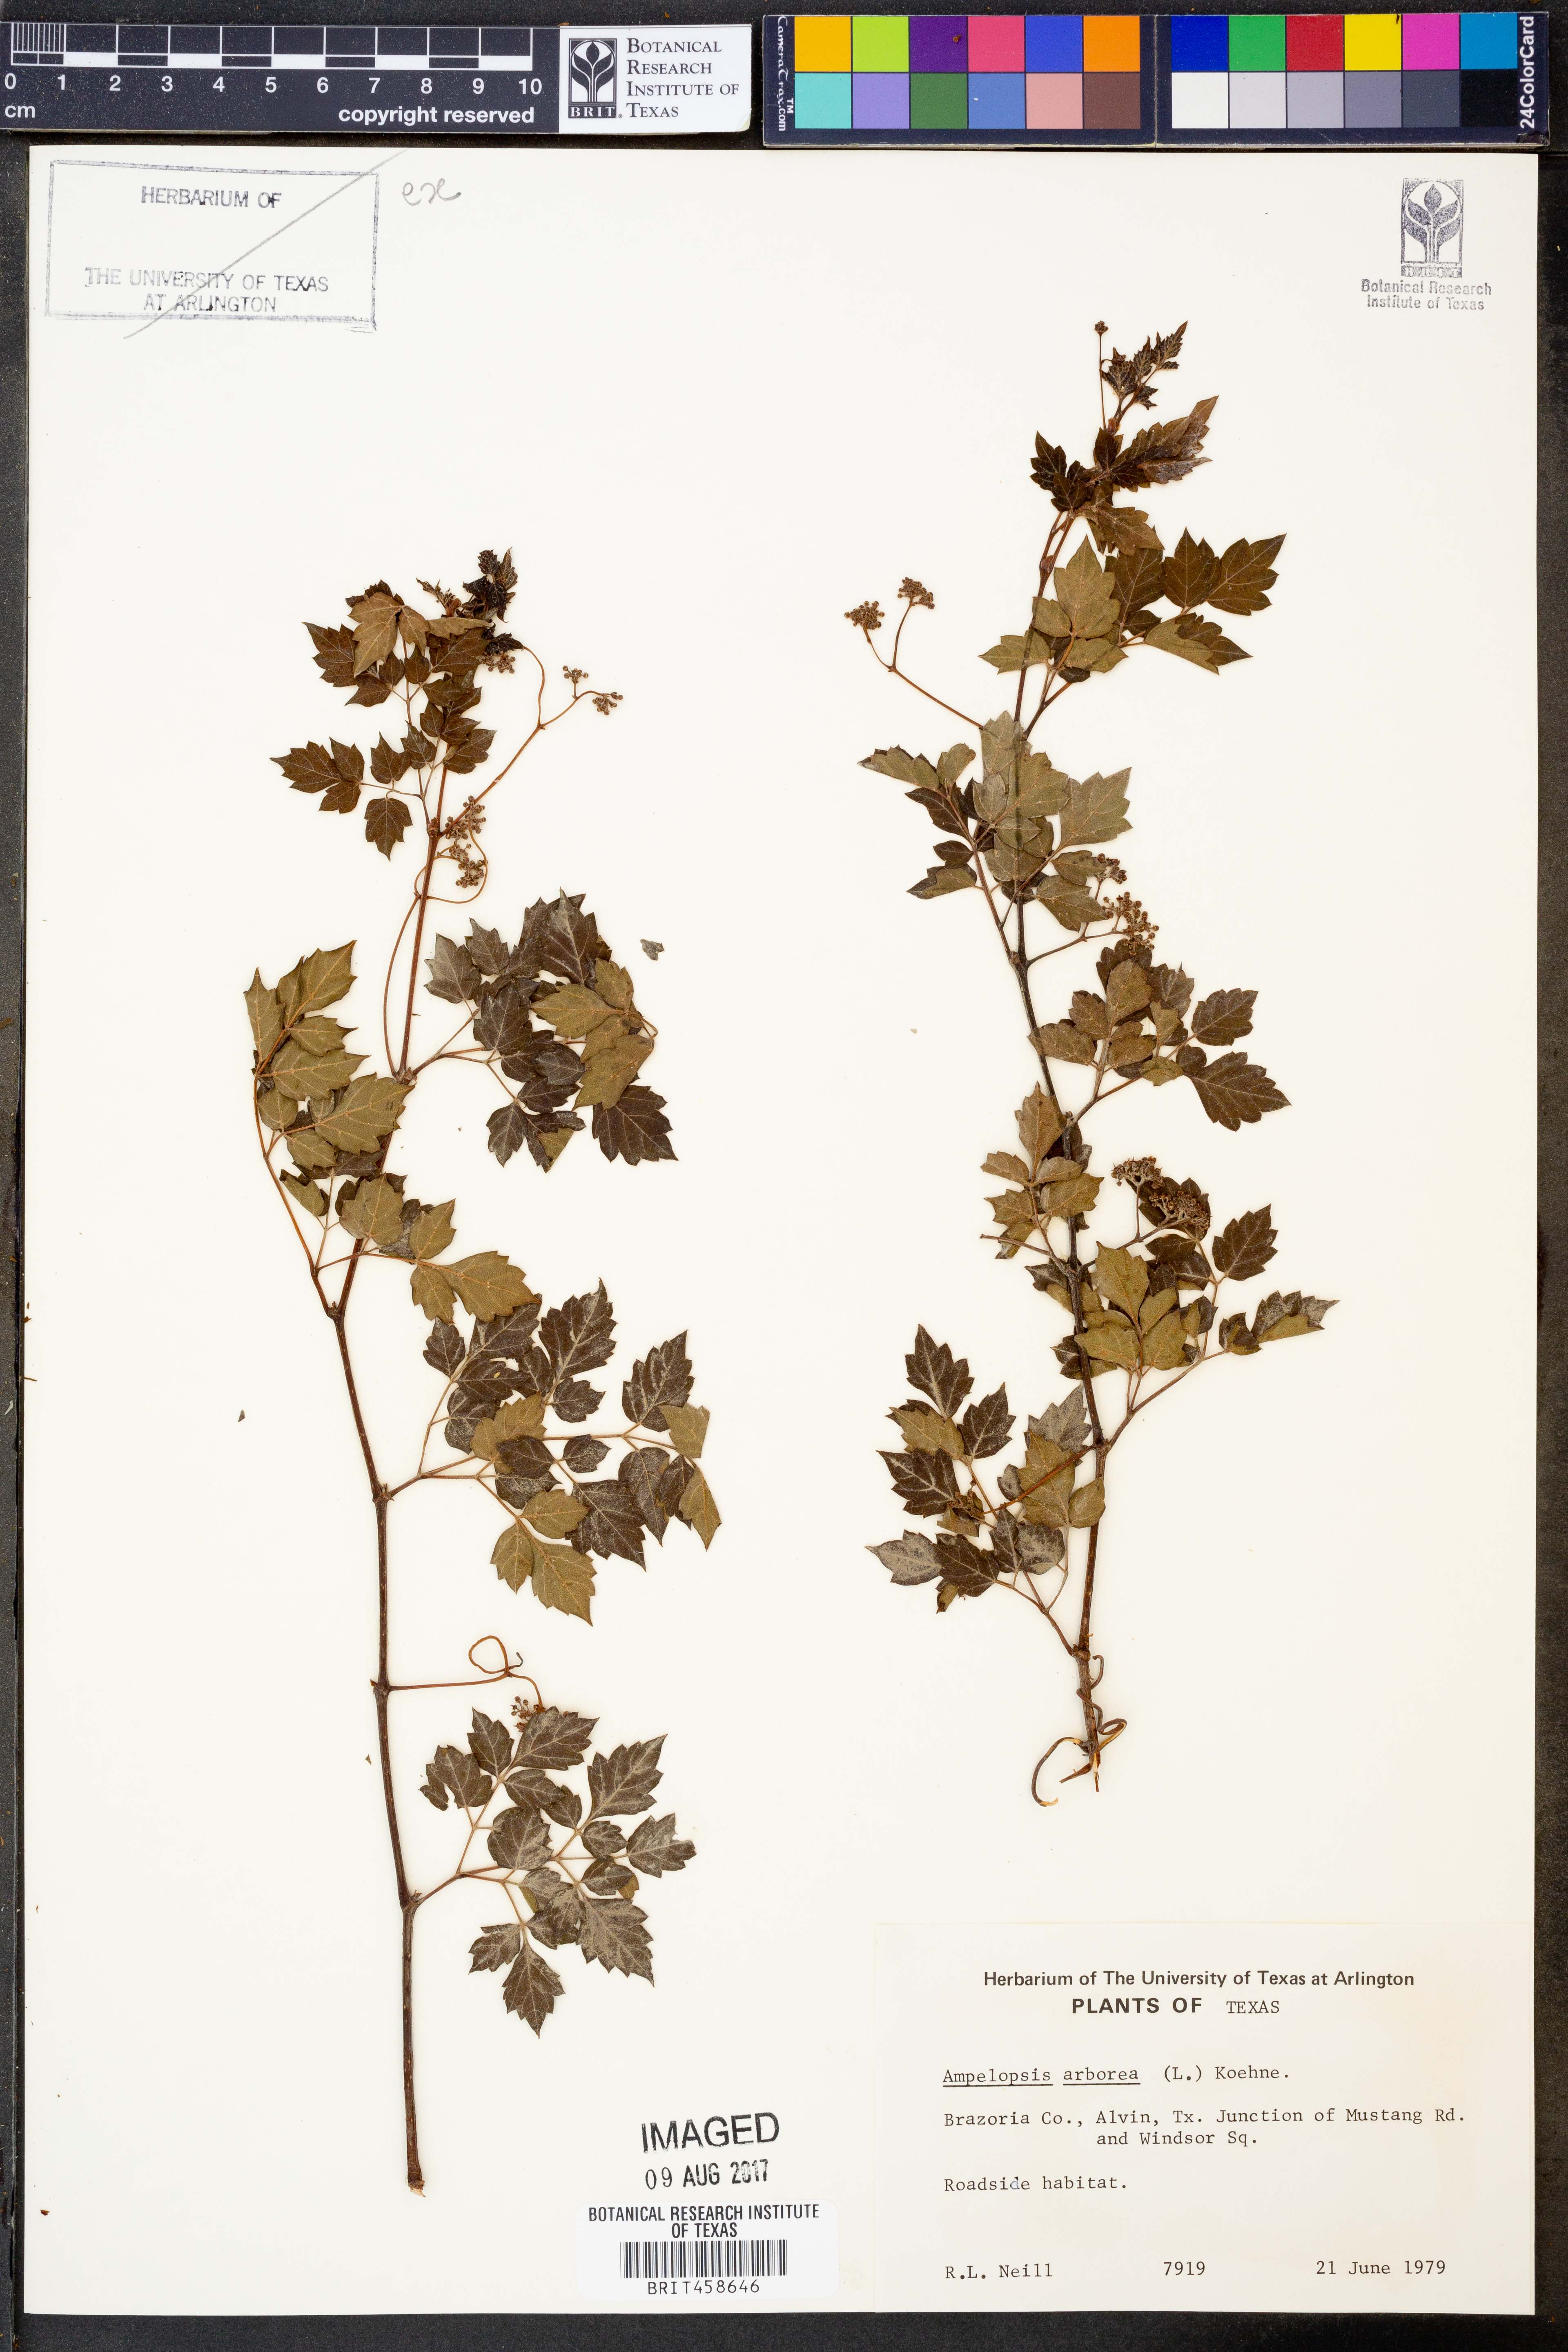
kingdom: Plantae
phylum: Tracheophyta
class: Magnoliopsida
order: Vitales
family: Vitaceae
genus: Nekemias
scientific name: Nekemias arborea
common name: Peppervine
